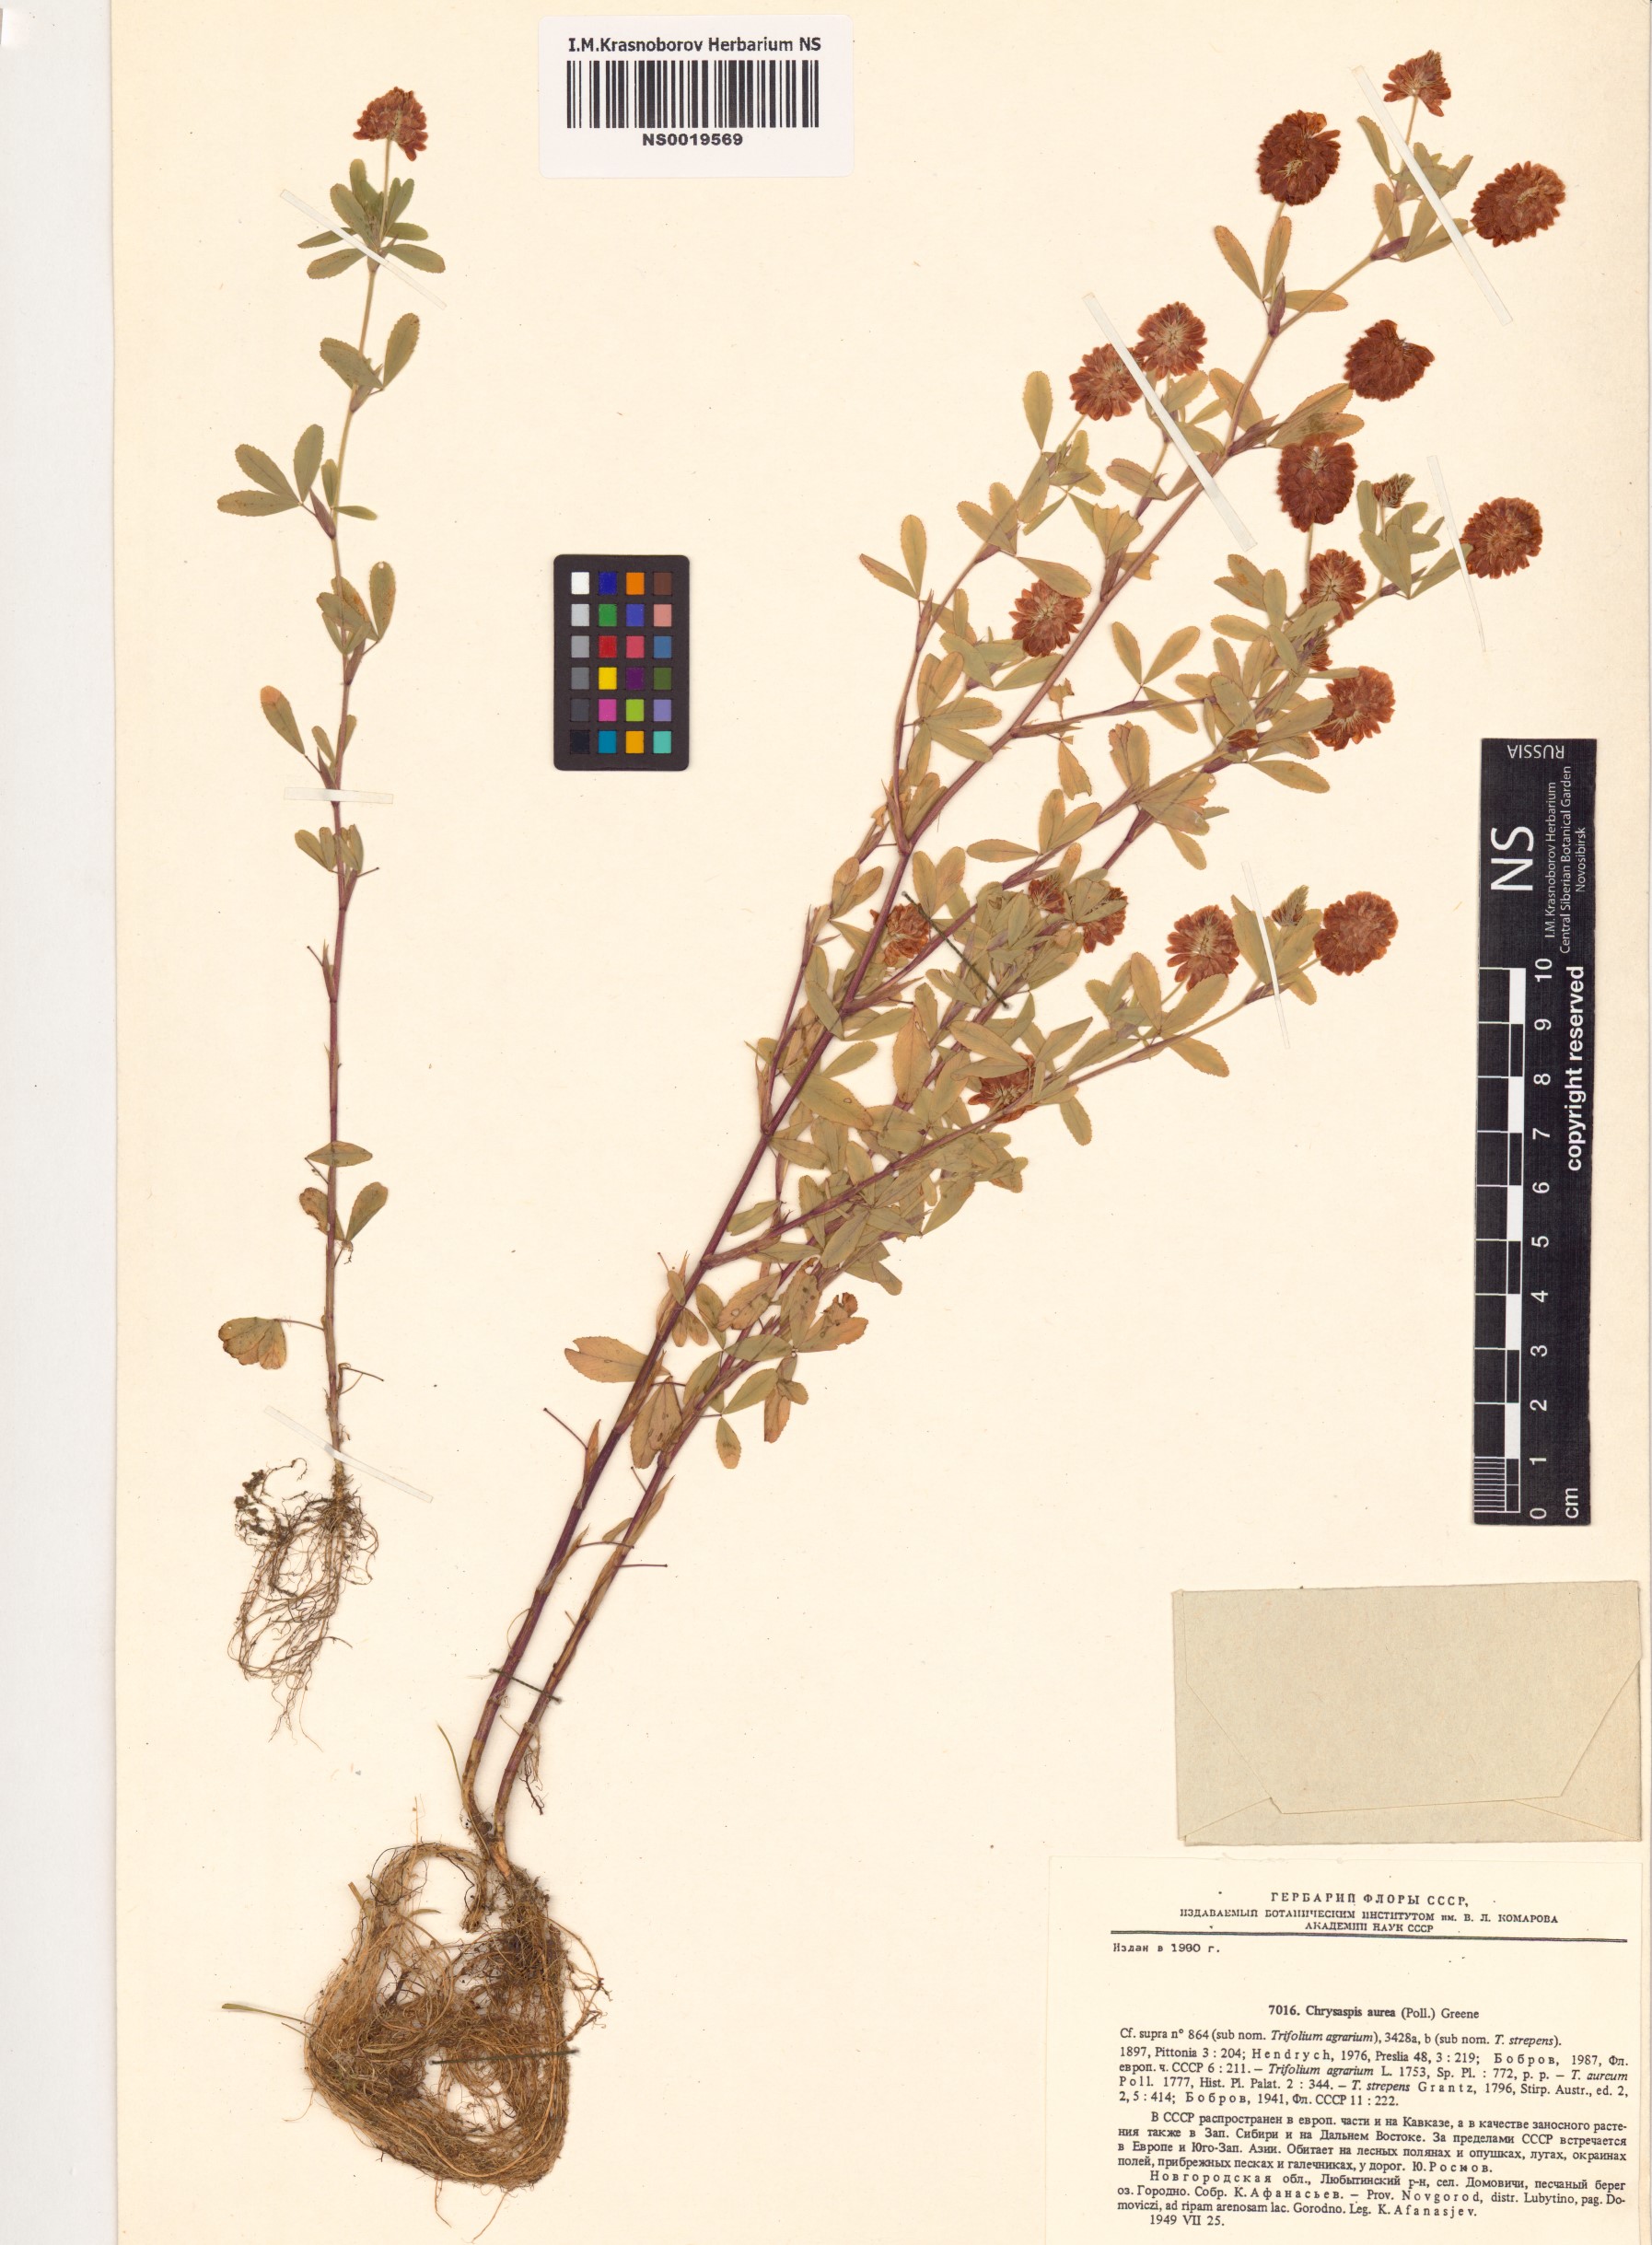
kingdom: Plantae
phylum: Tracheophyta
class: Magnoliopsida
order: Fabales
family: Fabaceae
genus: Trifolium
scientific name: Trifolium aureum
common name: Golden clover
